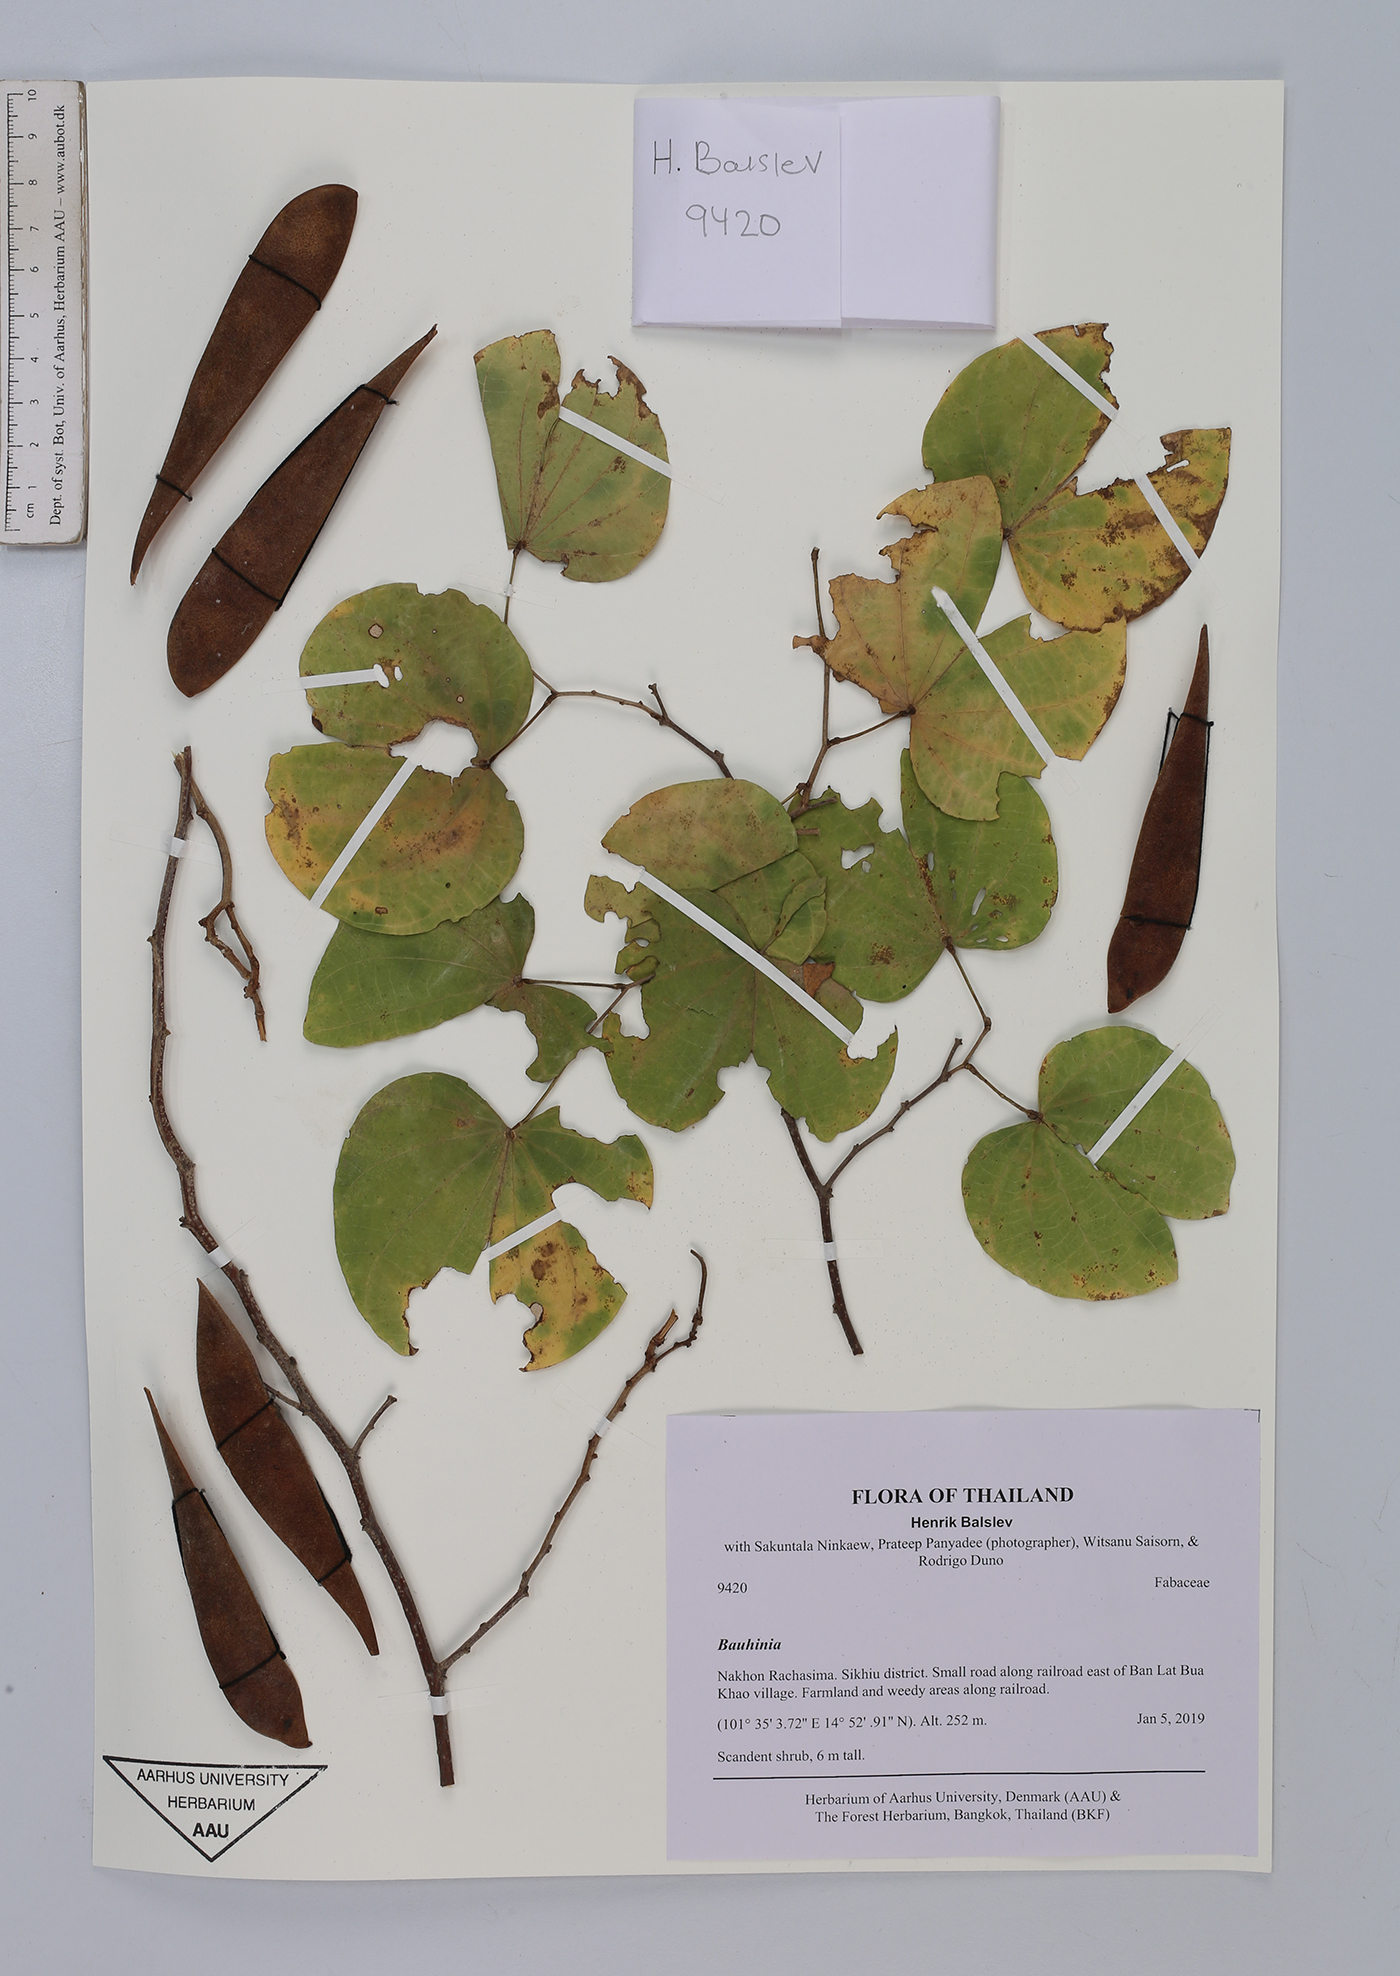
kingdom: Plantae
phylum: Tracheophyta
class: Magnoliopsida
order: Fabales
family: Fabaceae
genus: Bauhinia
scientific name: Bauhinia
